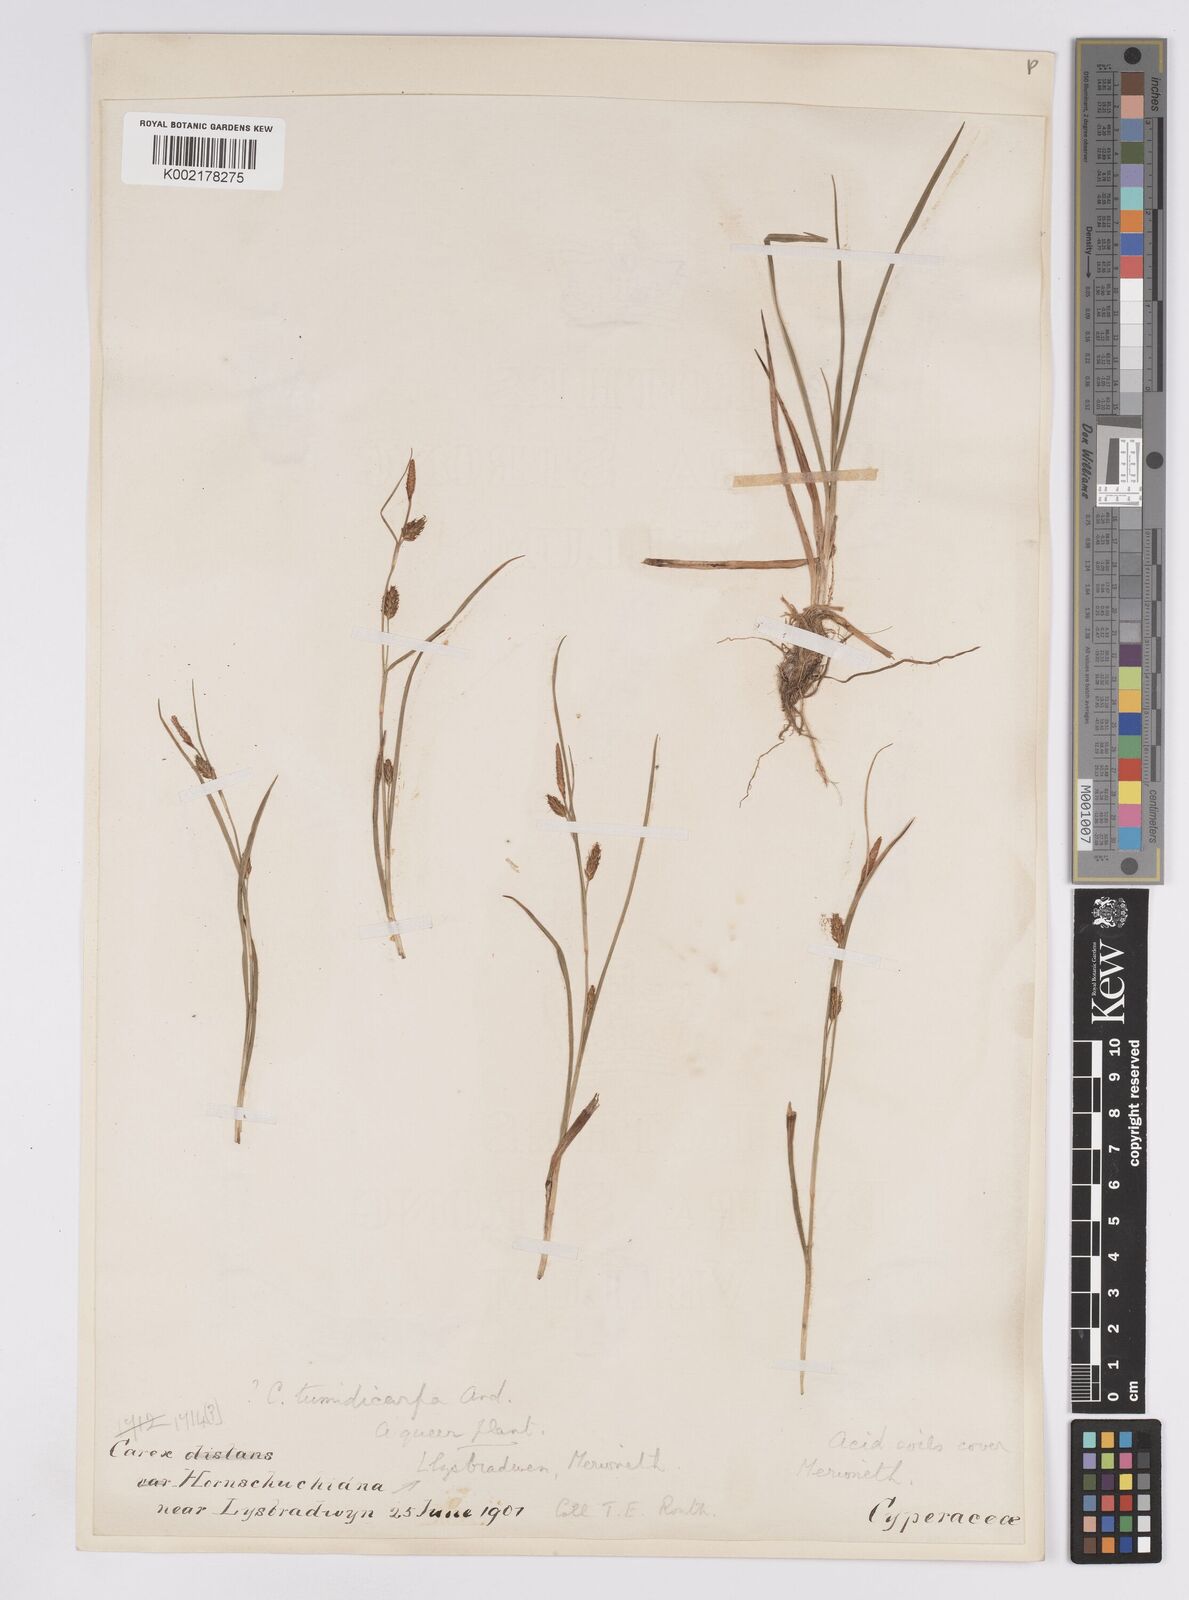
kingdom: Plantae
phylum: Tracheophyta
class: Liliopsida
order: Poales
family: Cyperaceae
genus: Carex
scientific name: Carex demissa
